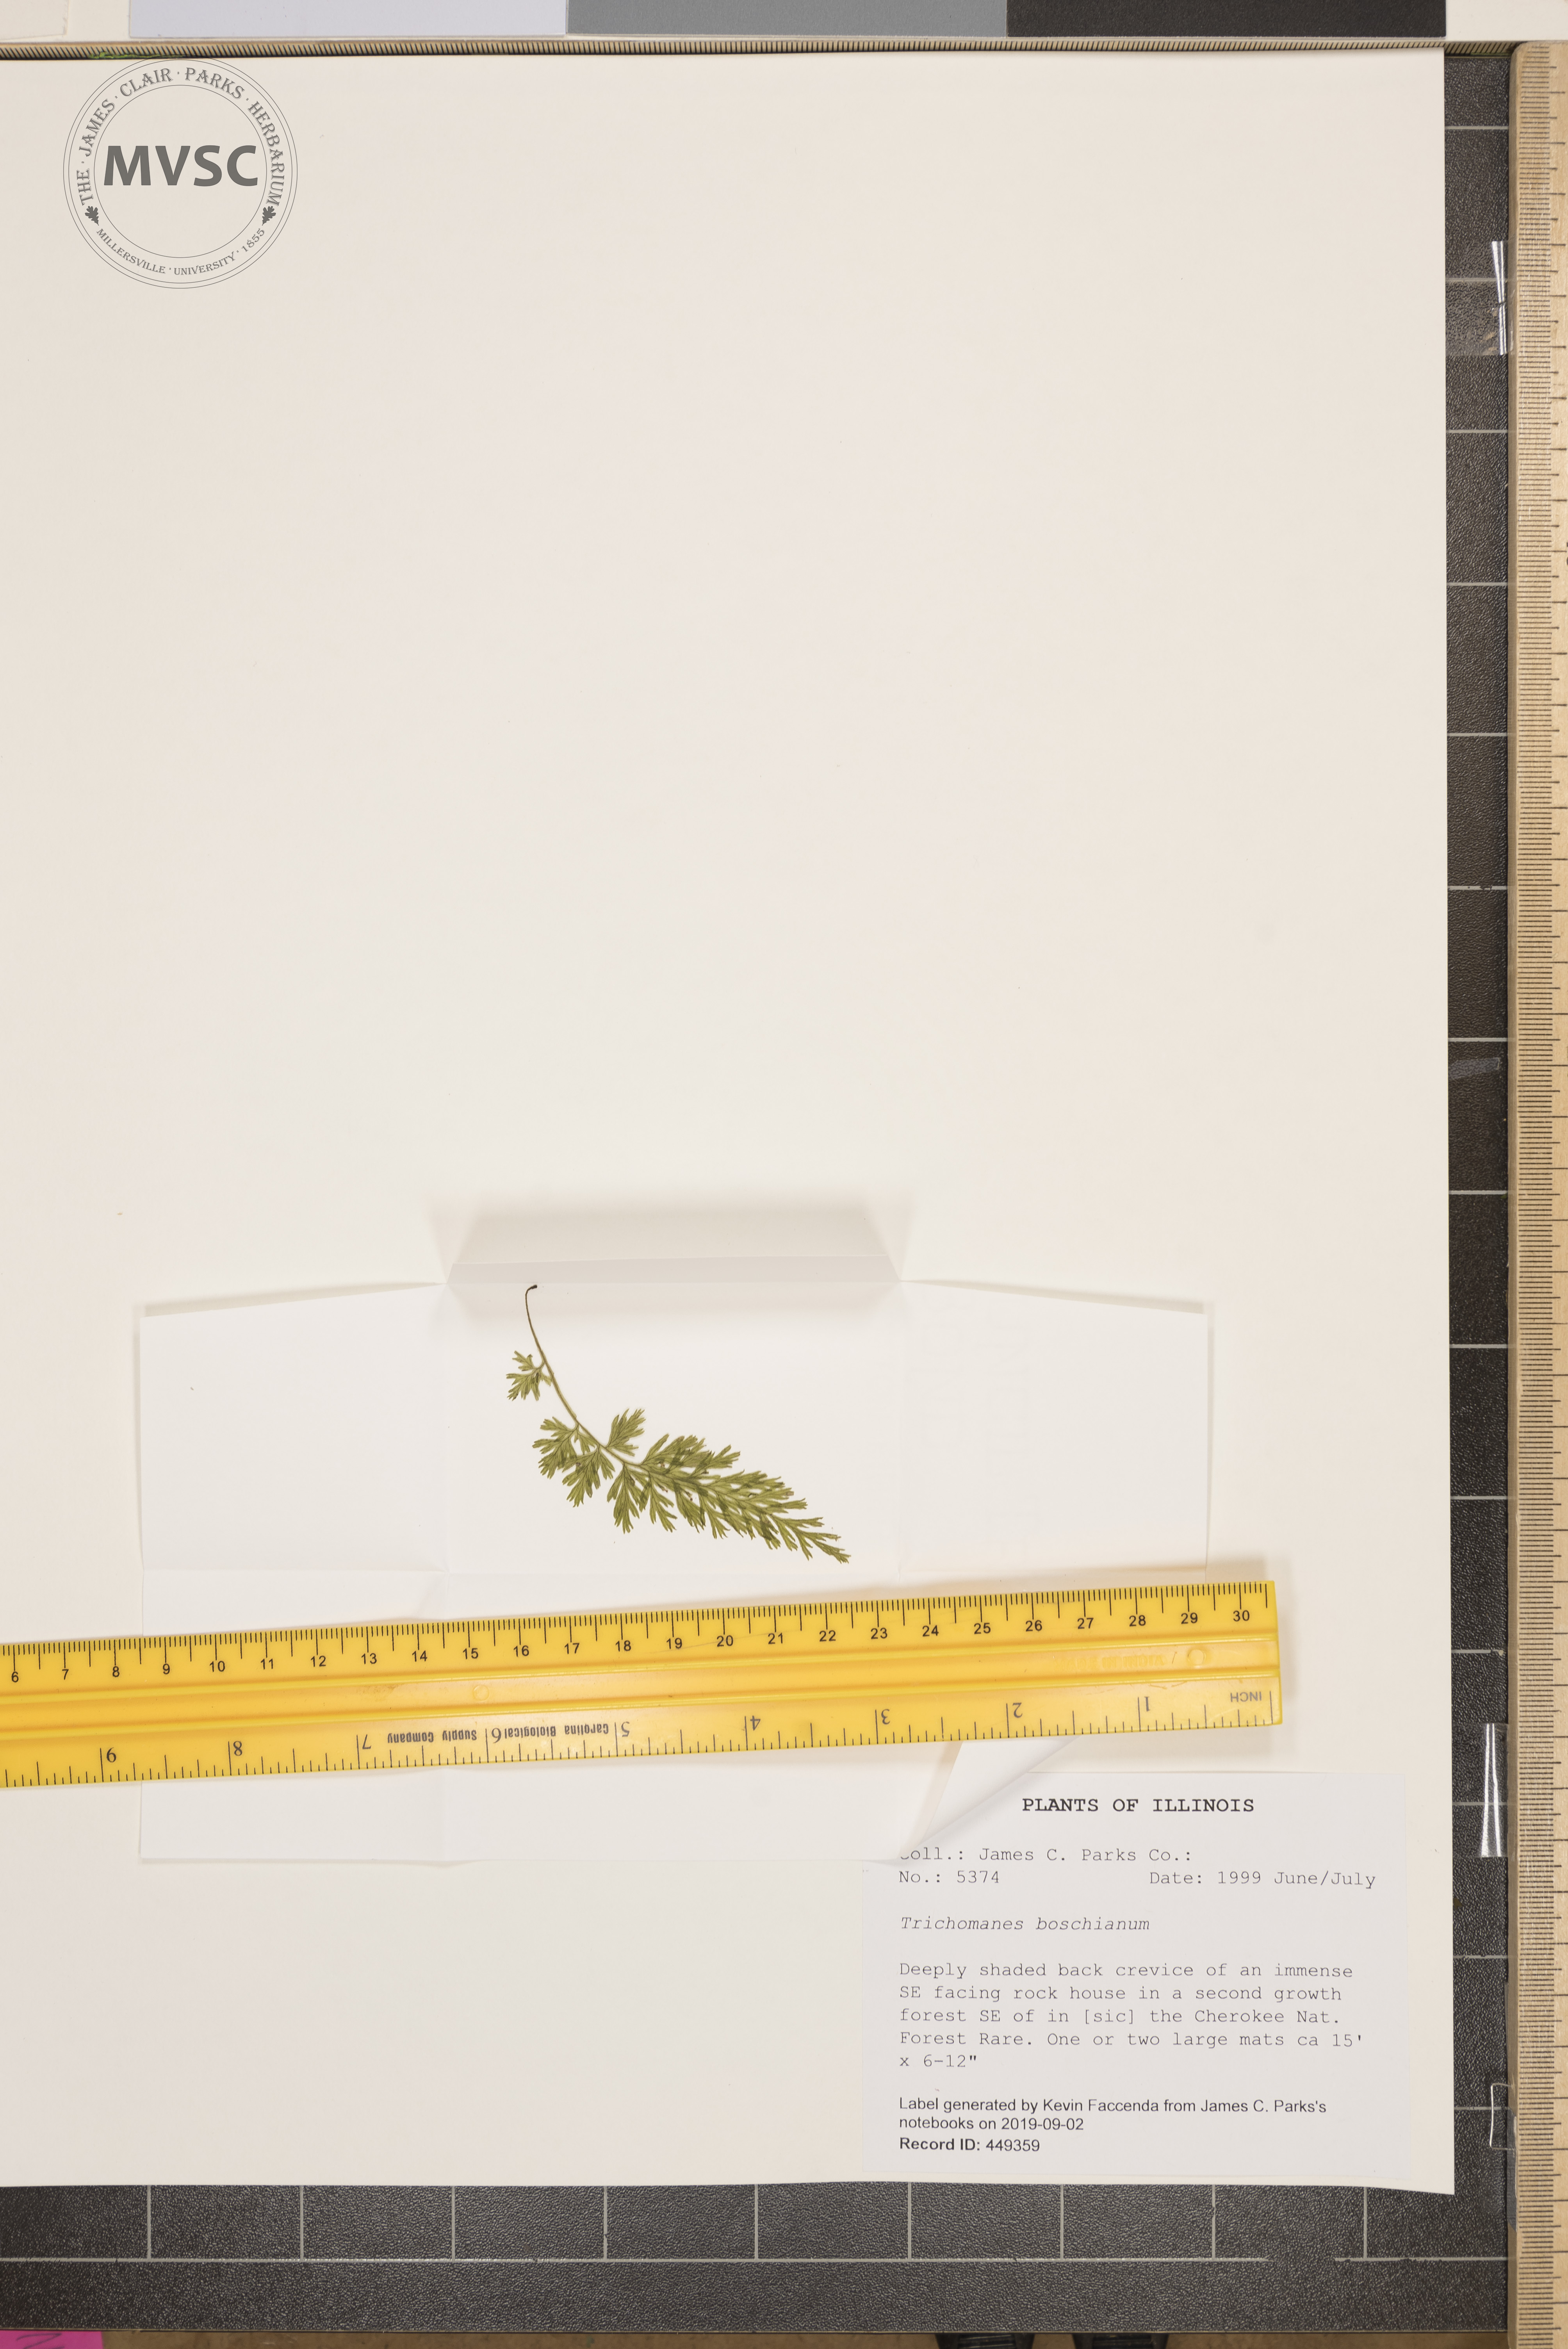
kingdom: Plantae
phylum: Tracheophyta
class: Polypodiopsida
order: Hymenophyllales
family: Hymenophyllaceae
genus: Vandenboschia
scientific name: Vandenboschia boschiana
